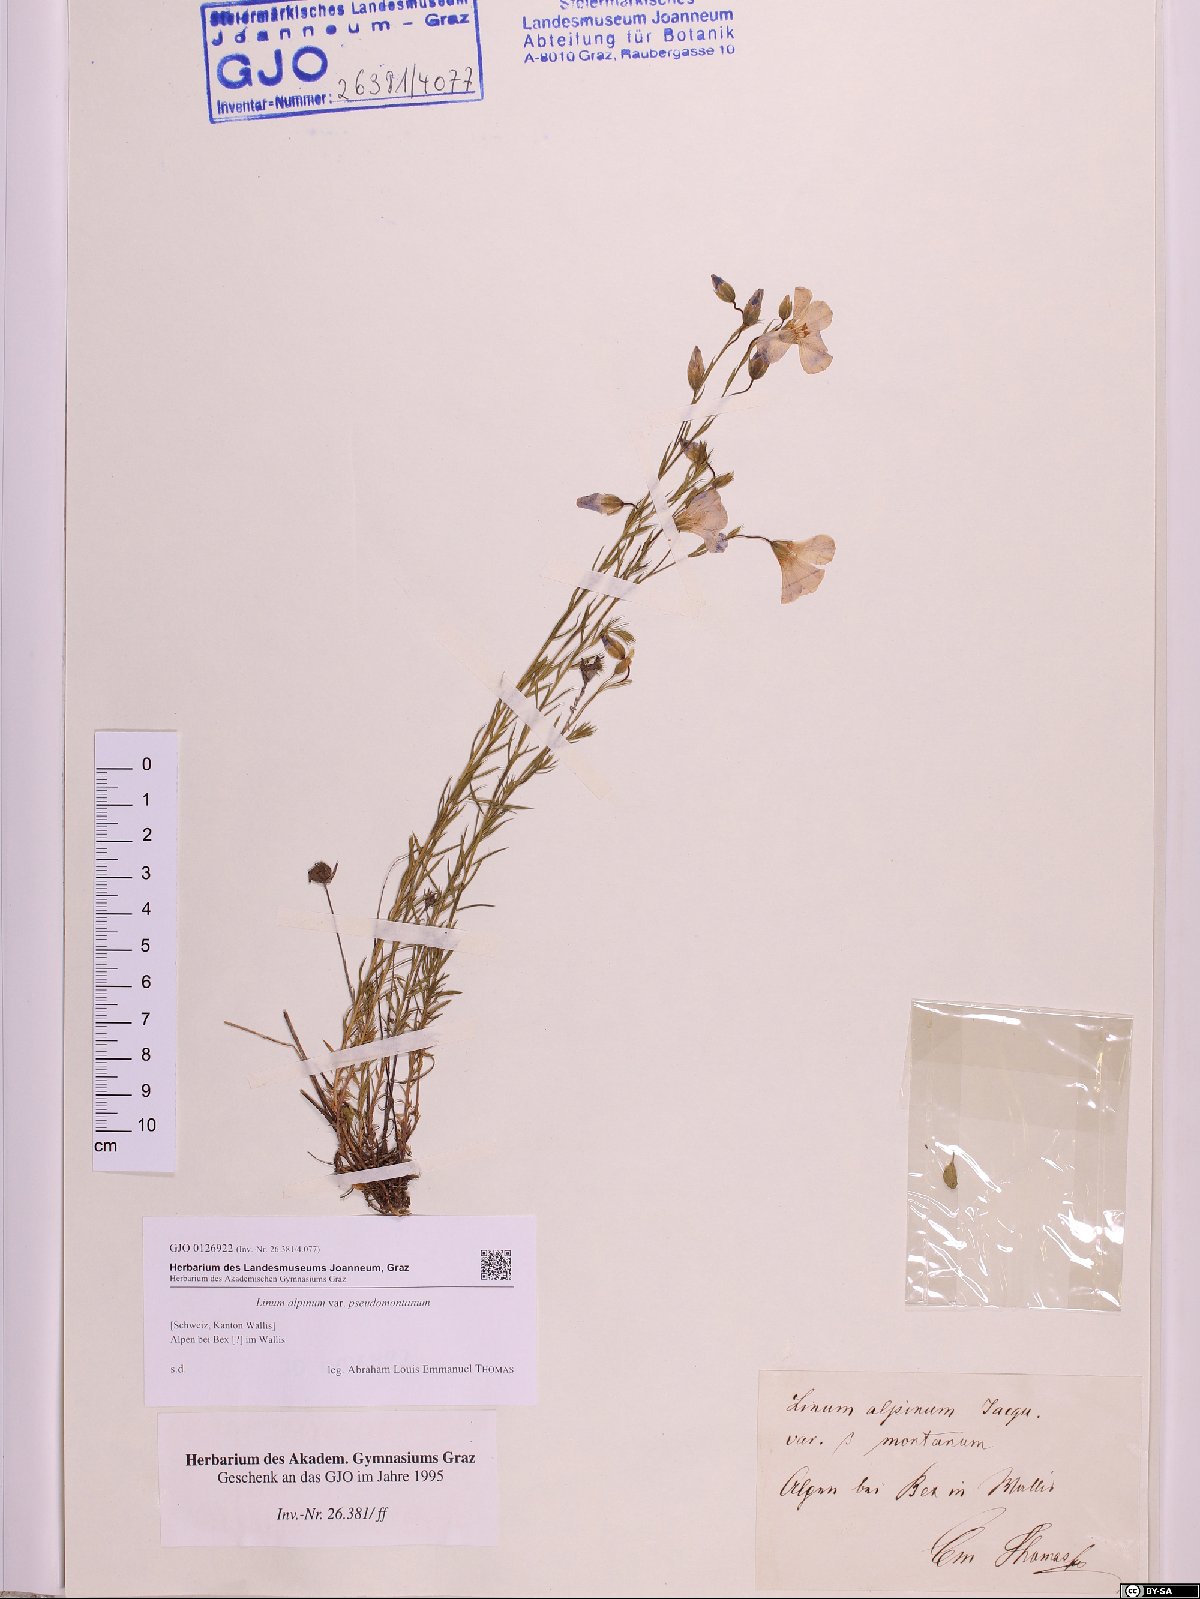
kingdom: Plantae
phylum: Tracheophyta
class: Magnoliopsida
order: Malpighiales
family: Linaceae
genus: Linum
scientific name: Linum alpinum
